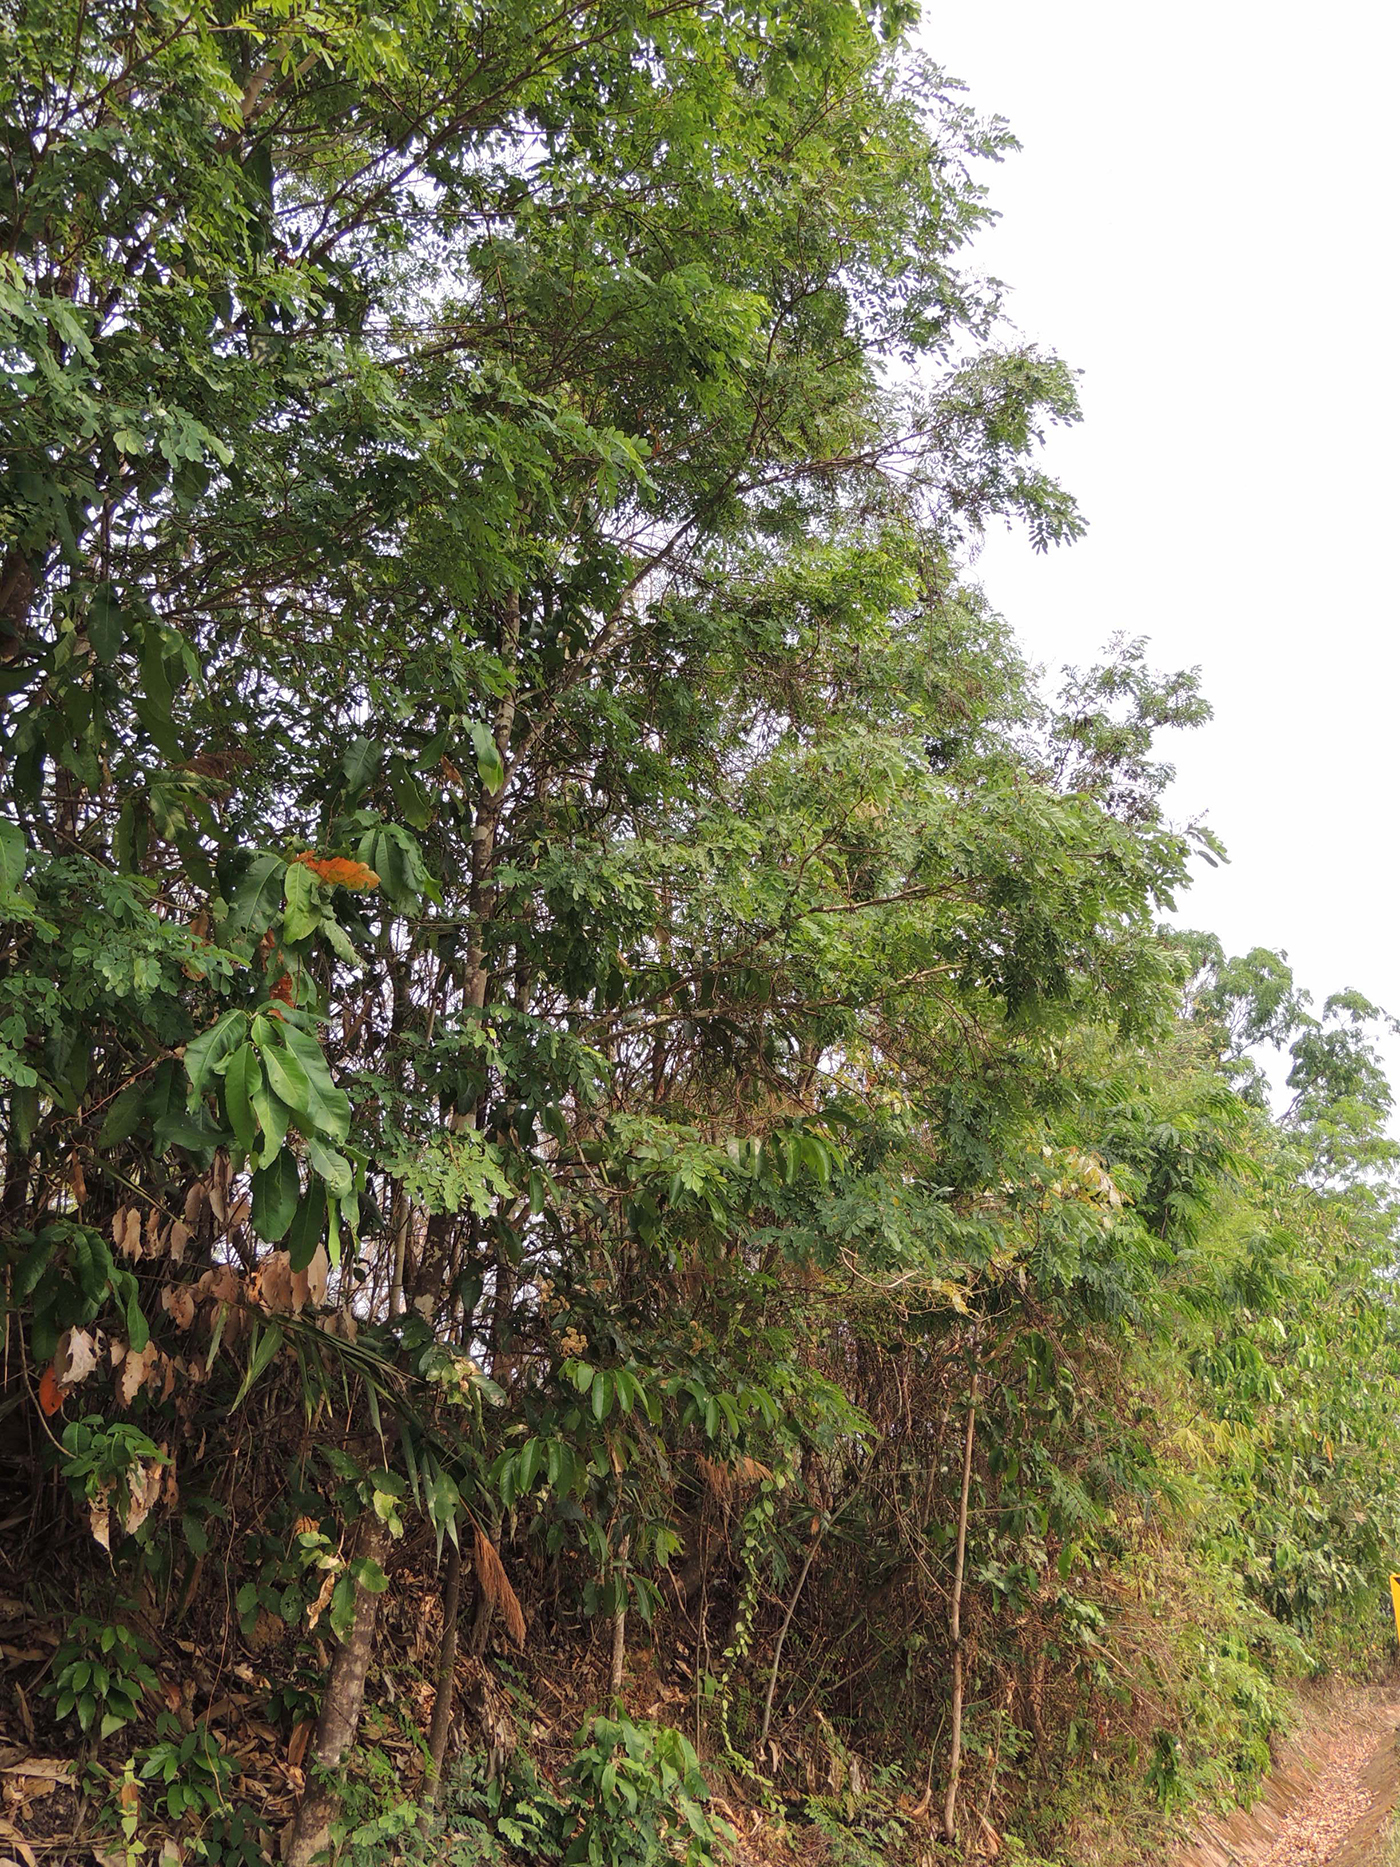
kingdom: Plantae
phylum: Tracheophyta
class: Magnoliopsida
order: Fabales
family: Fabaceae
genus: Dalbergia
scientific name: Dalbergia
